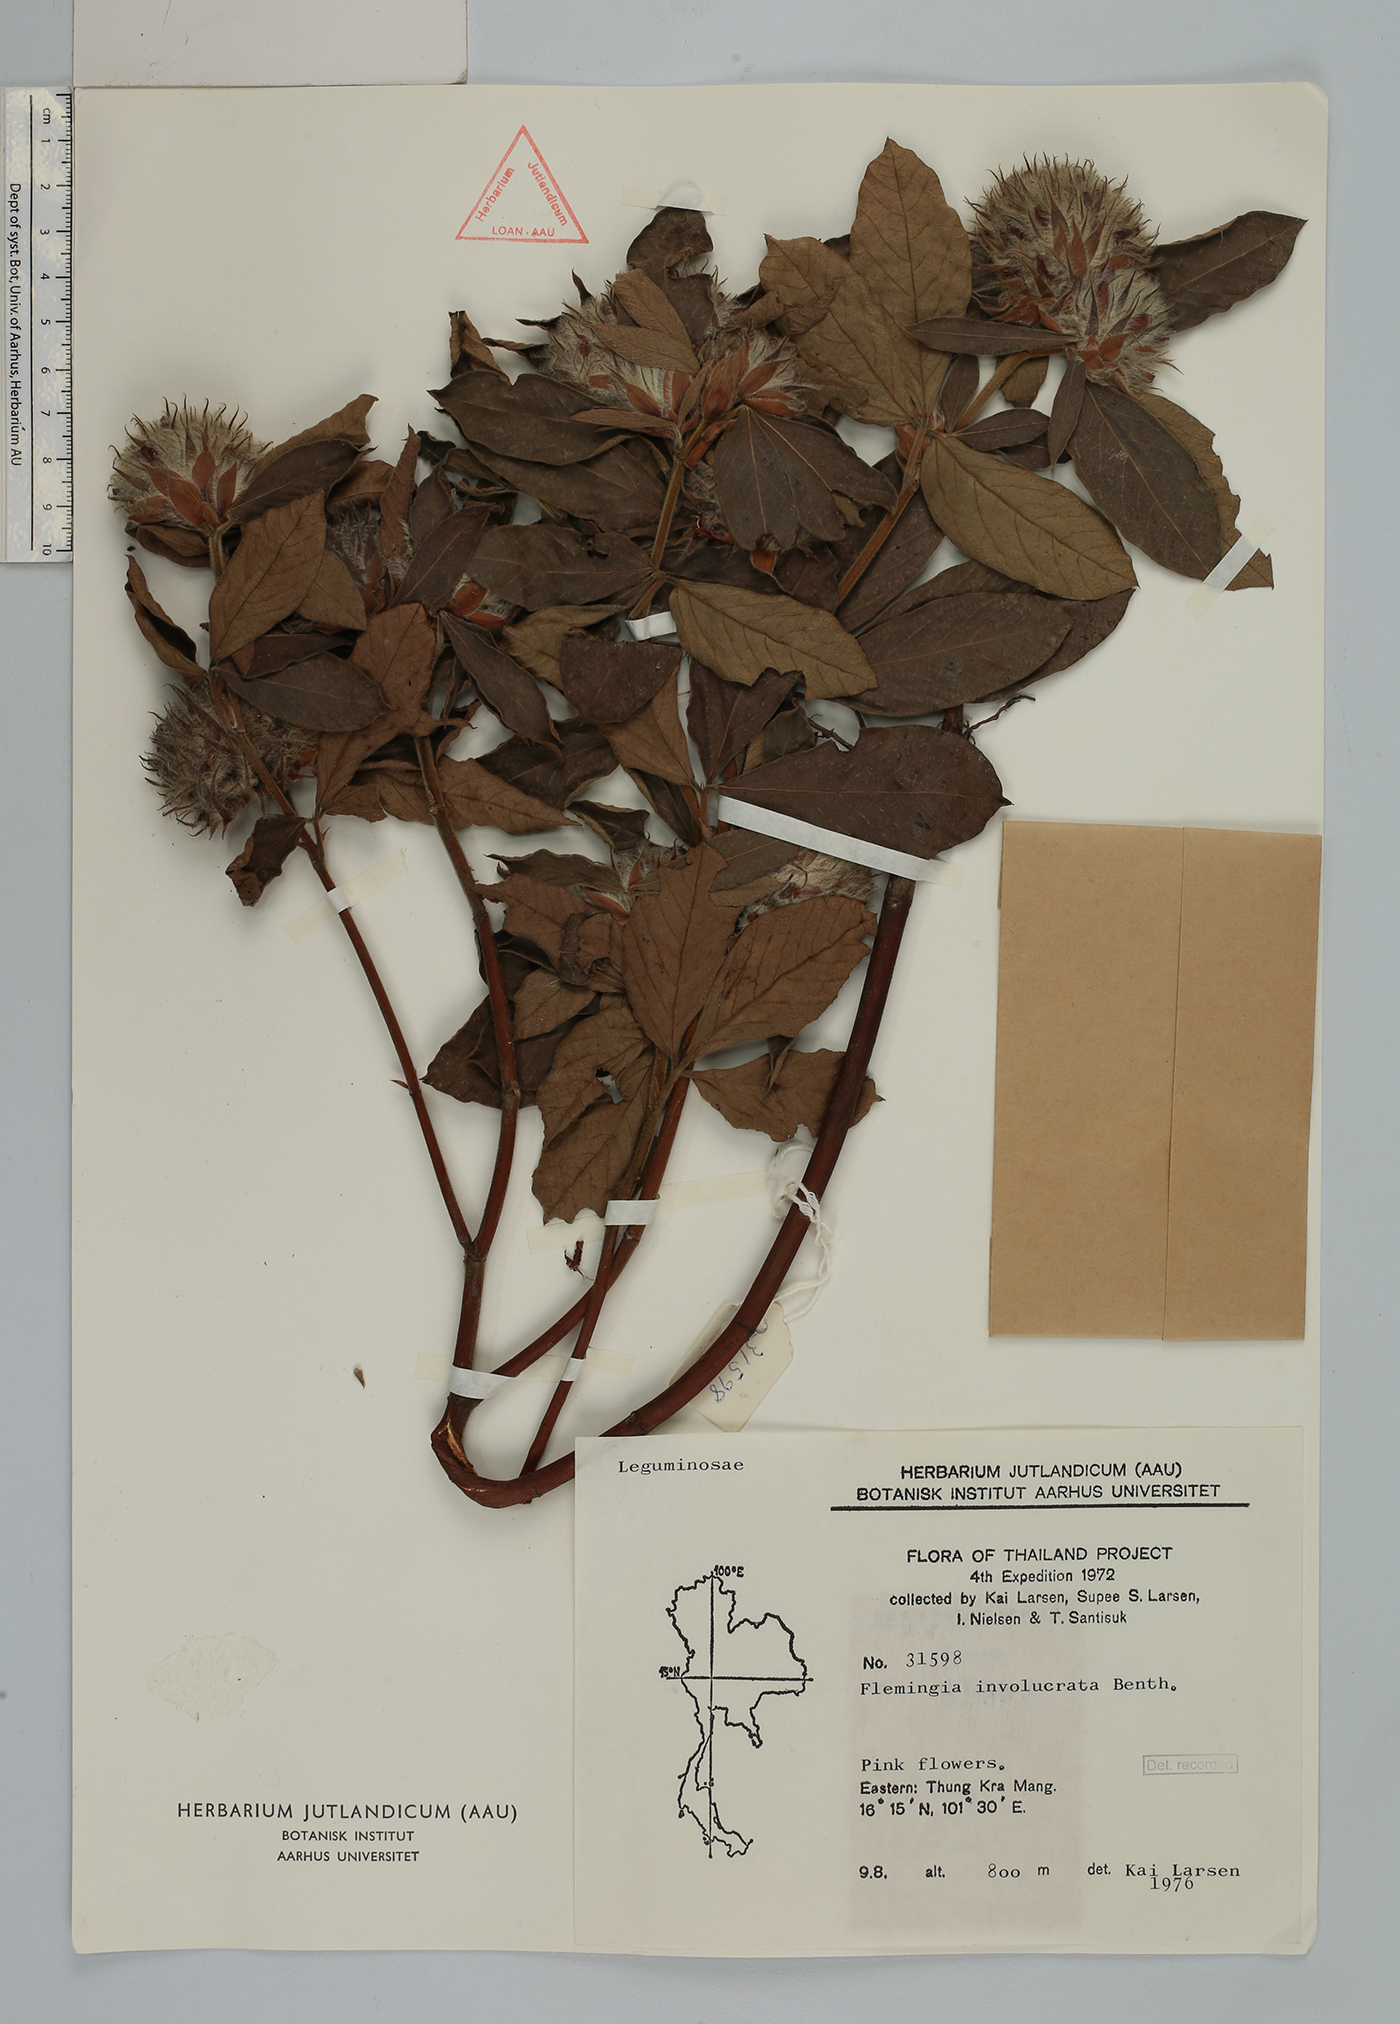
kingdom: Plantae
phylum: Tracheophyta
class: Magnoliopsida
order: Fabales
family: Fabaceae
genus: Flemingia
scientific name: Flemingia trifoliata
